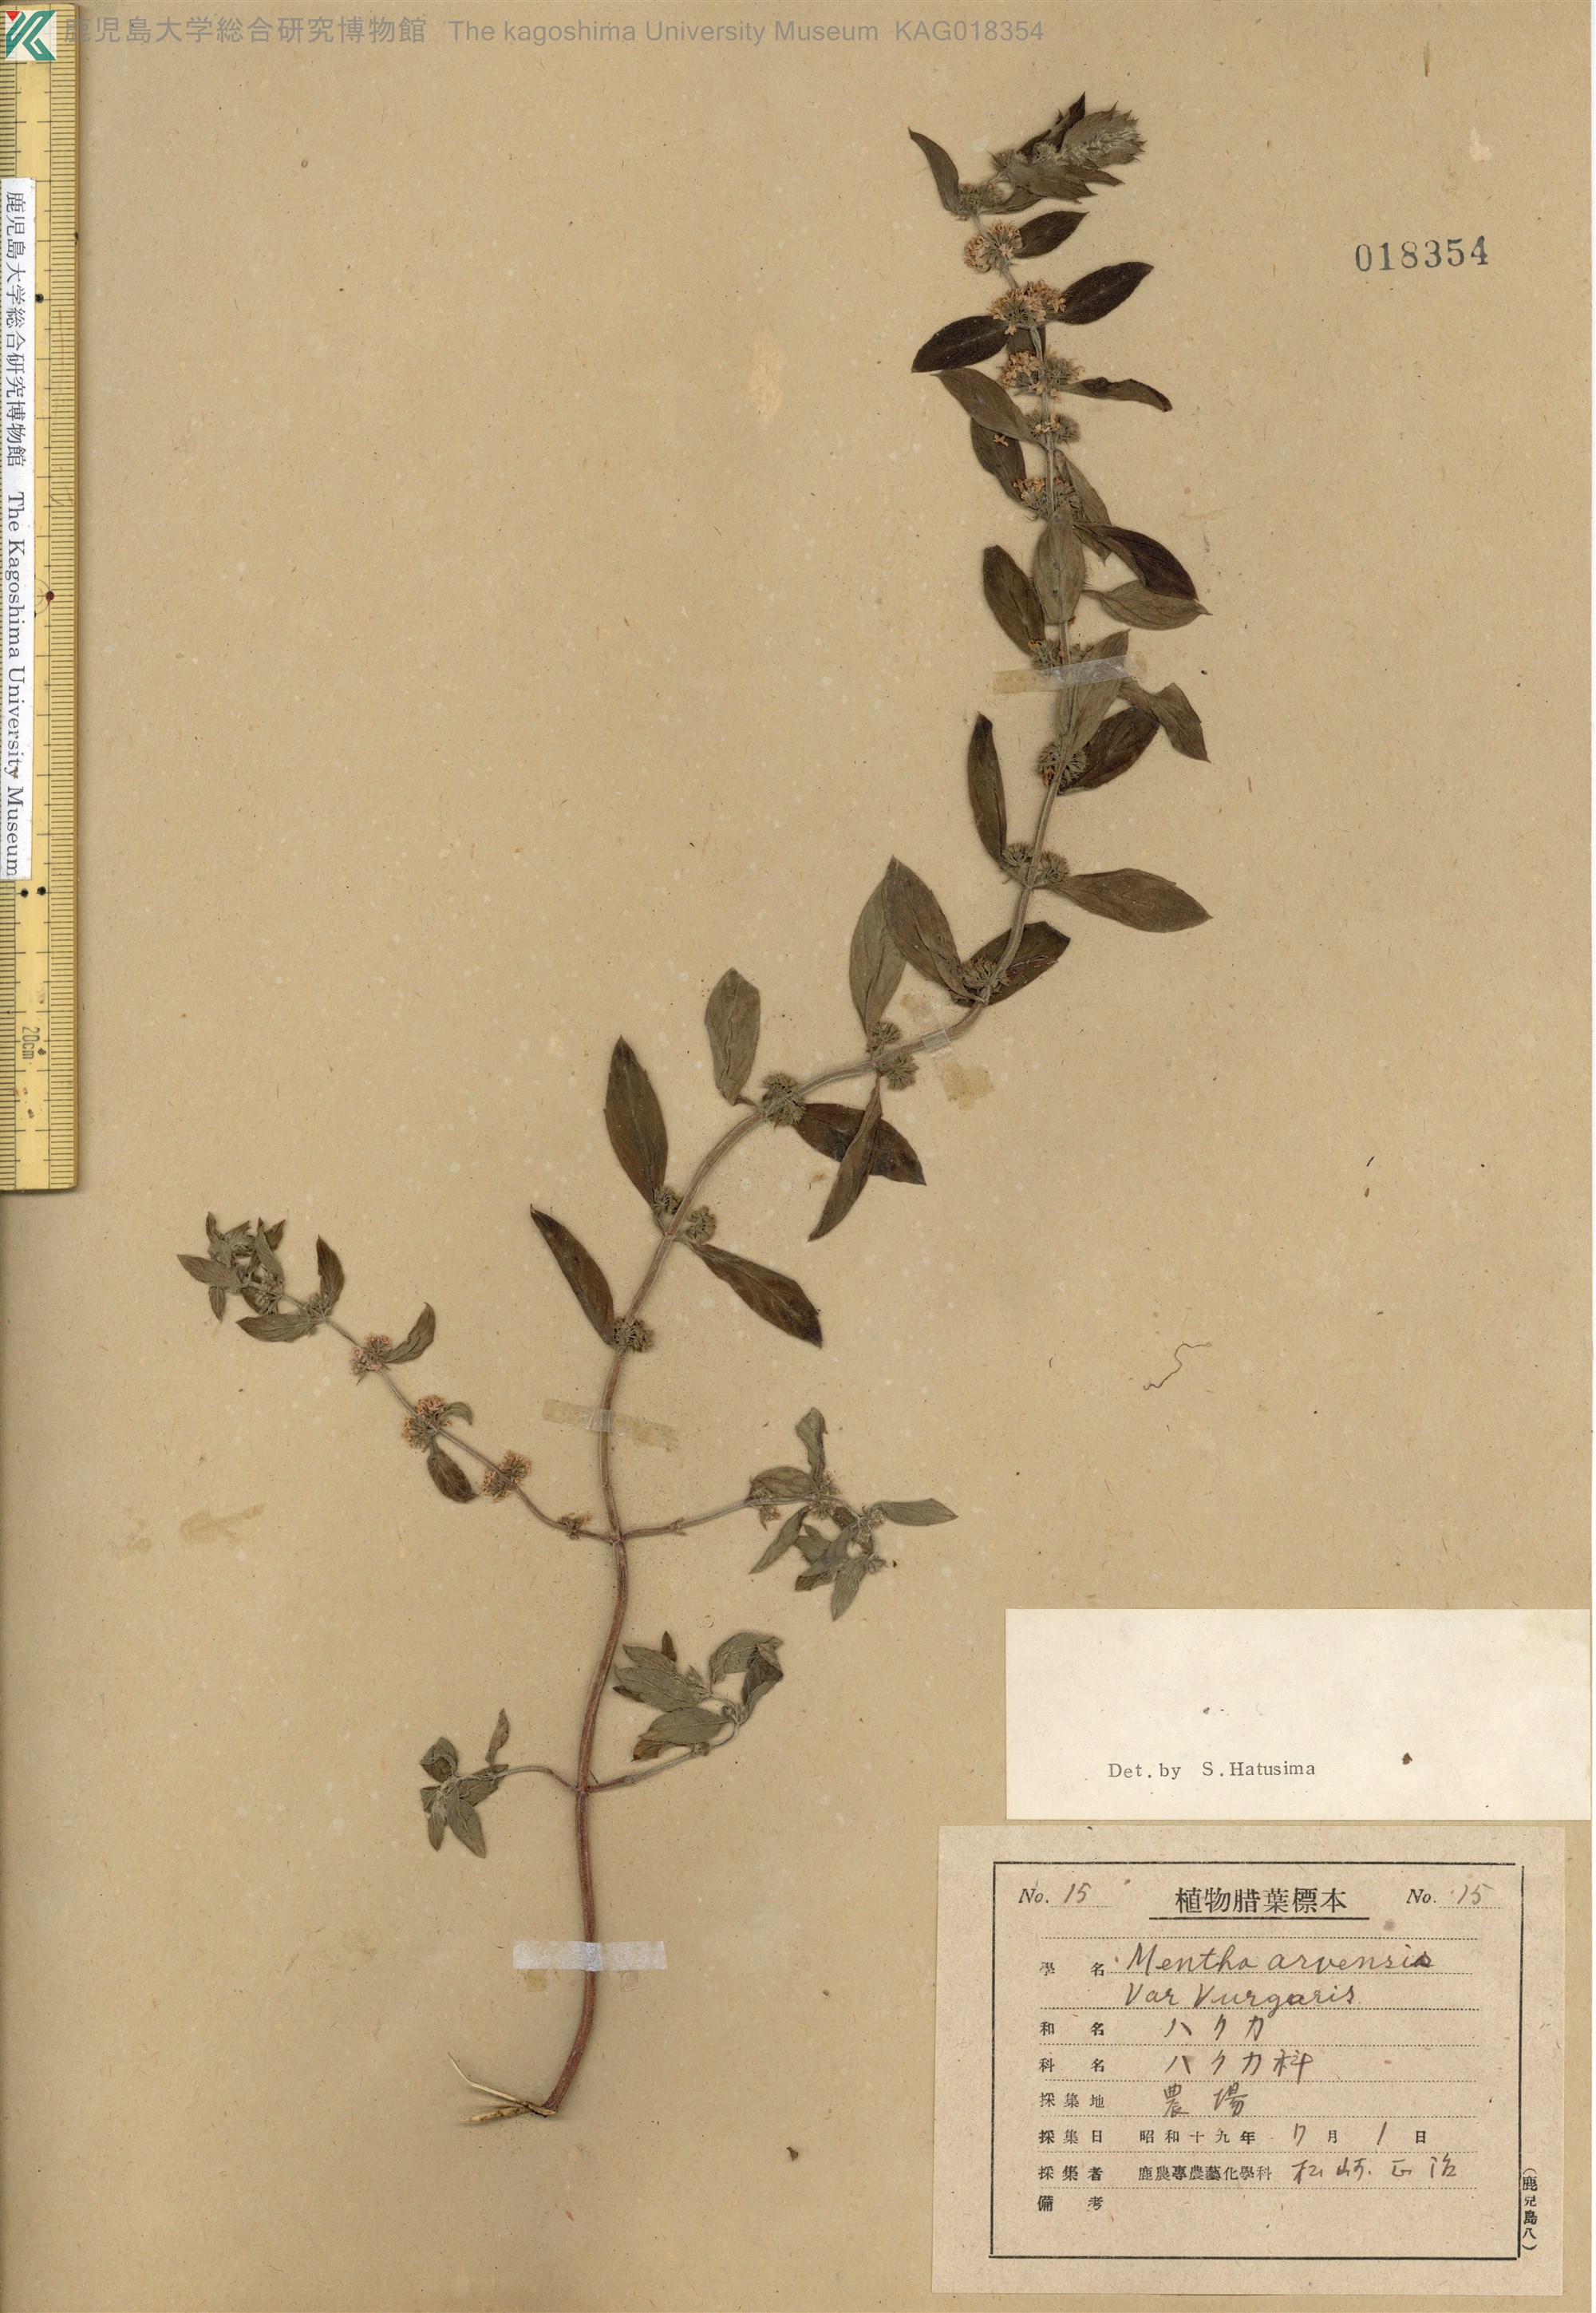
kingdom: Plantae
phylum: Tracheophyta
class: Magnoliopsida
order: Lamiales
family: Lamiaceae
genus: Mentha
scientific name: Mentha canadensis
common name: ハッカ
